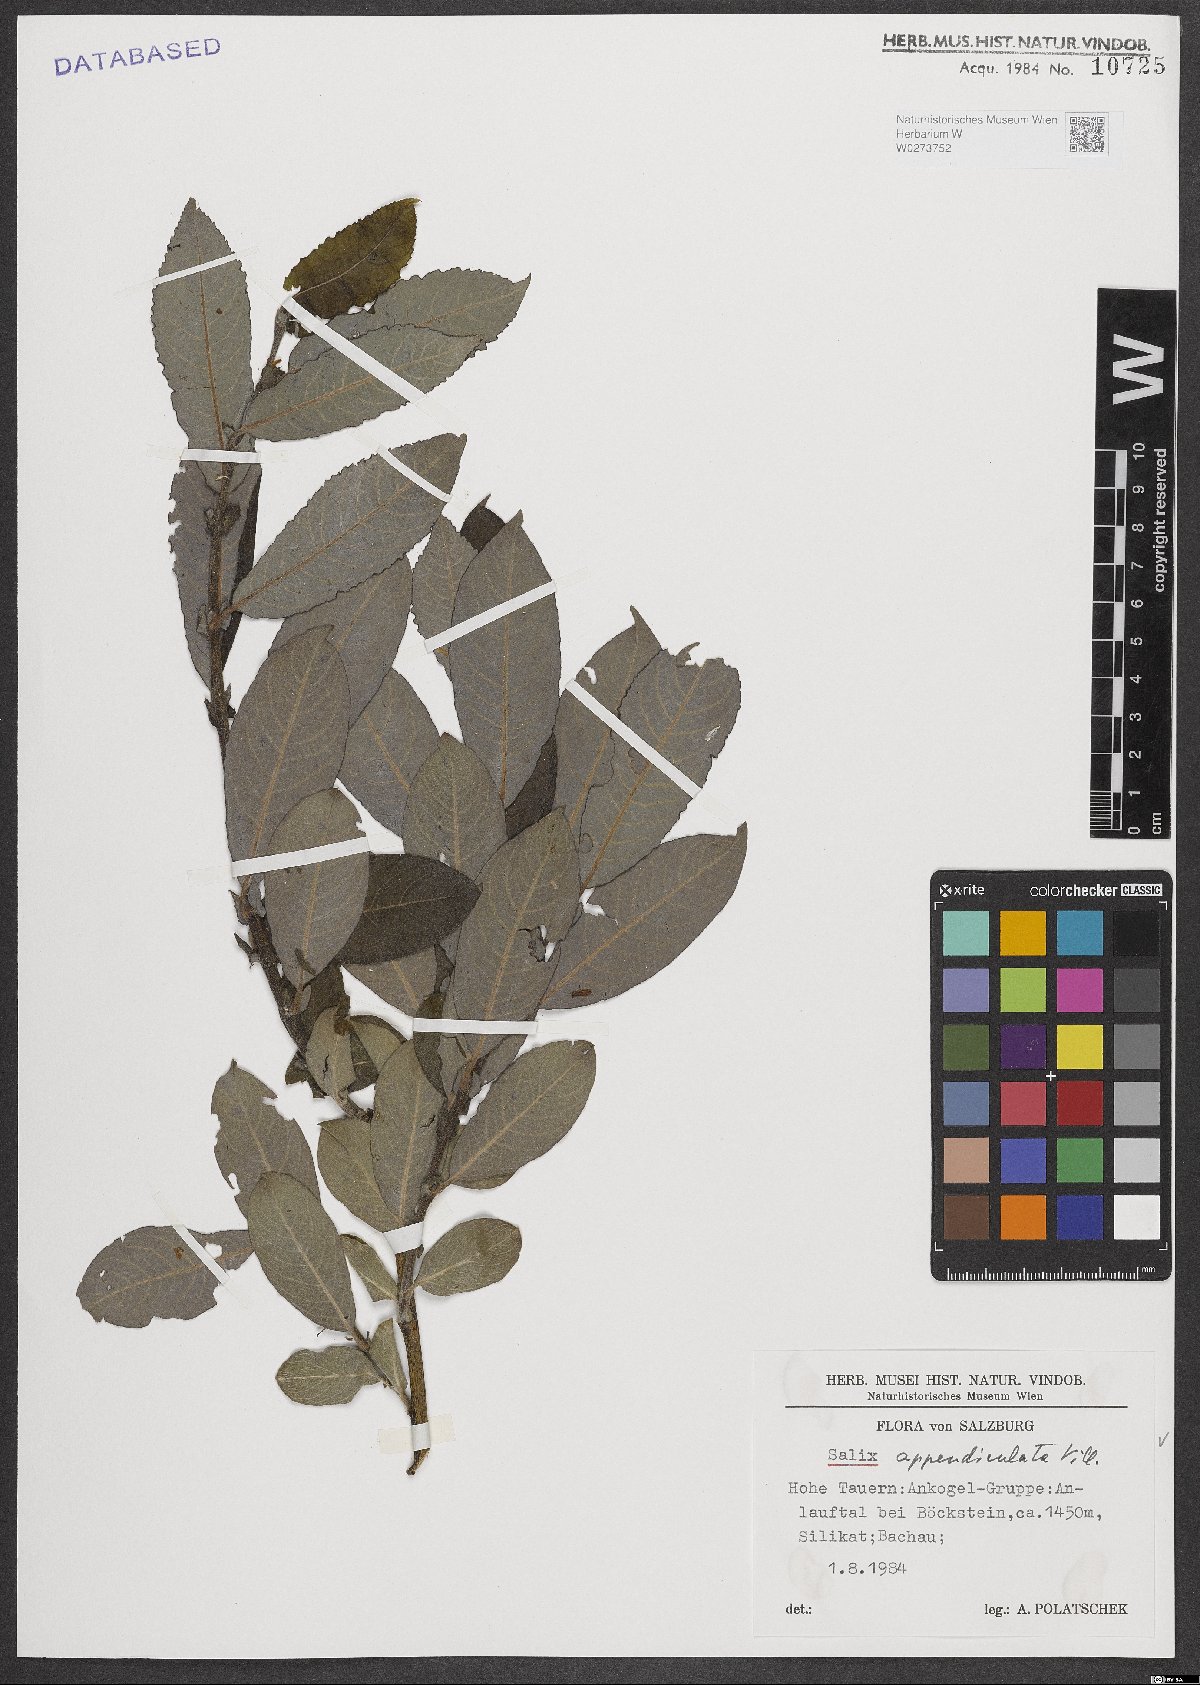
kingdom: Plantae
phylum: Tracheophyta
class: Magnoliopsida
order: Malpighiales
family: Salicaceae
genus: Salix
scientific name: Salix appendiculata
